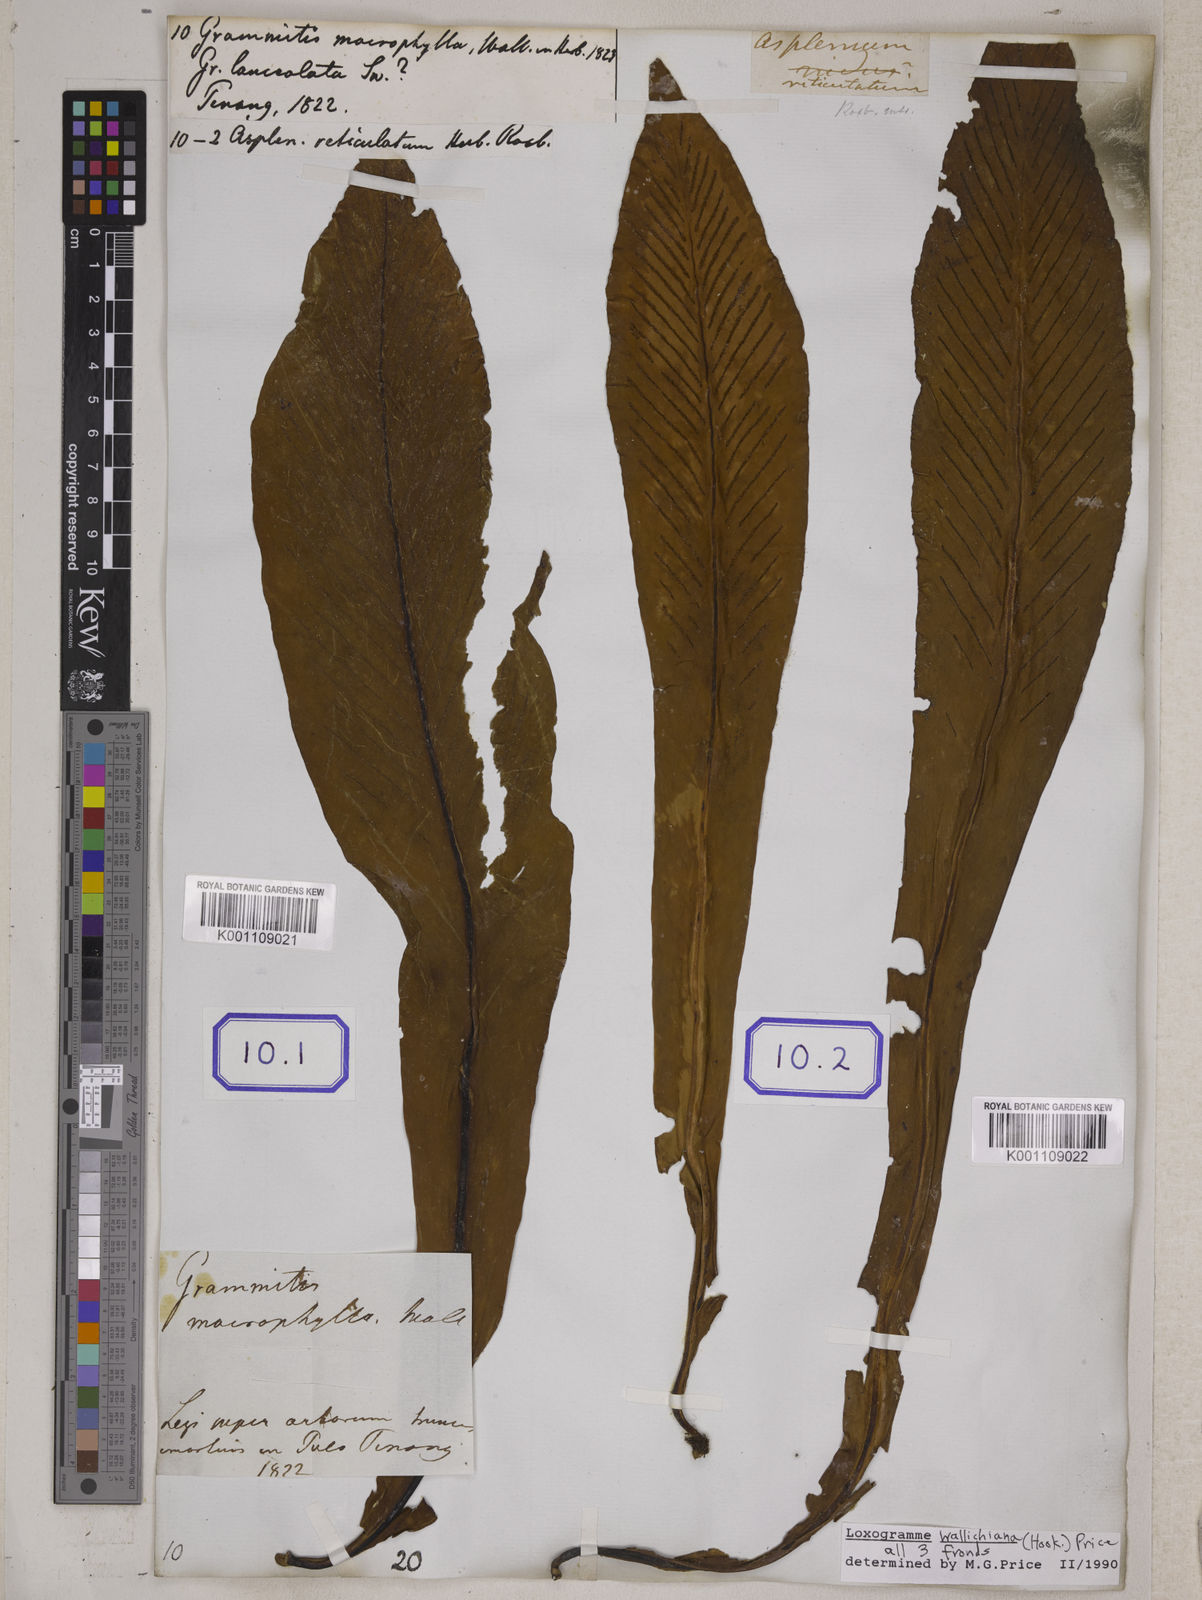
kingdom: Plantae
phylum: Tracheophyta
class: Polypodiopsida
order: Polypodiales
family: Polypodiaceae
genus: Loxogramme
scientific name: Loxogramme involuta
